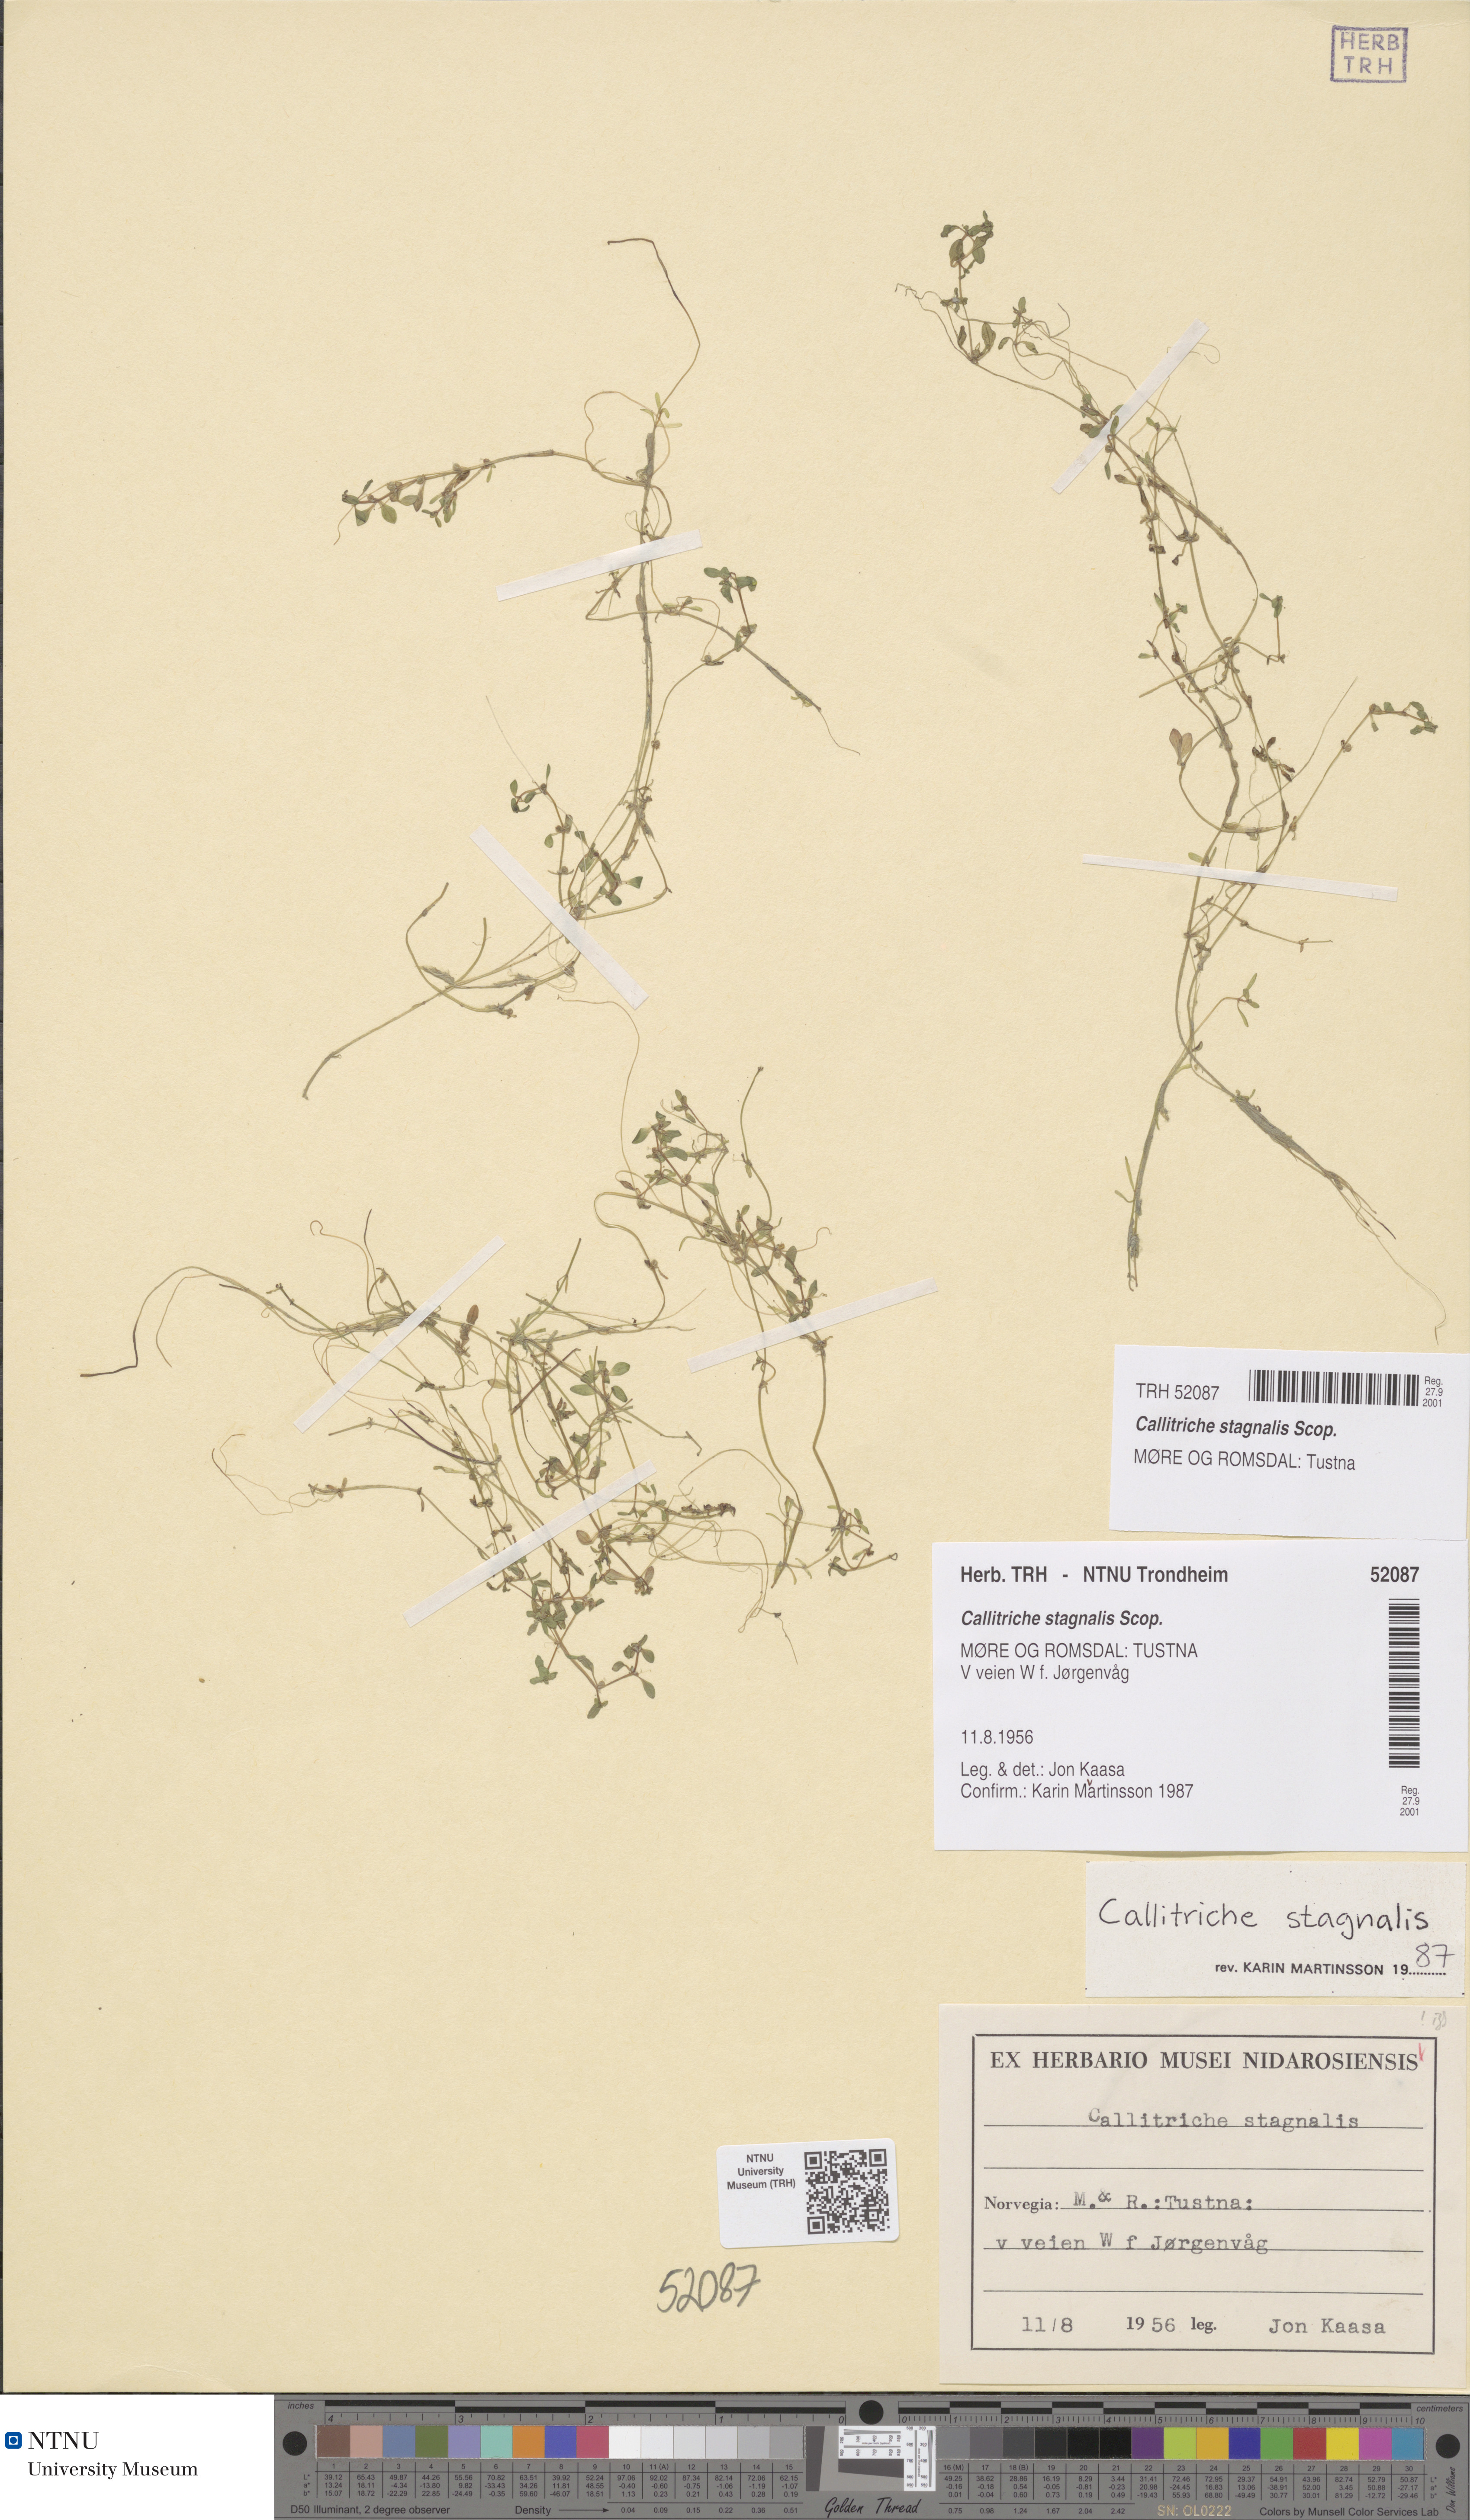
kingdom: Plantae
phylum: Tracheophyta
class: Magnoliopsida
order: Lamiales
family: Plantaginaceae
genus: Callitriche
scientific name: Callitriche stagnalis
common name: Common water-starwort
